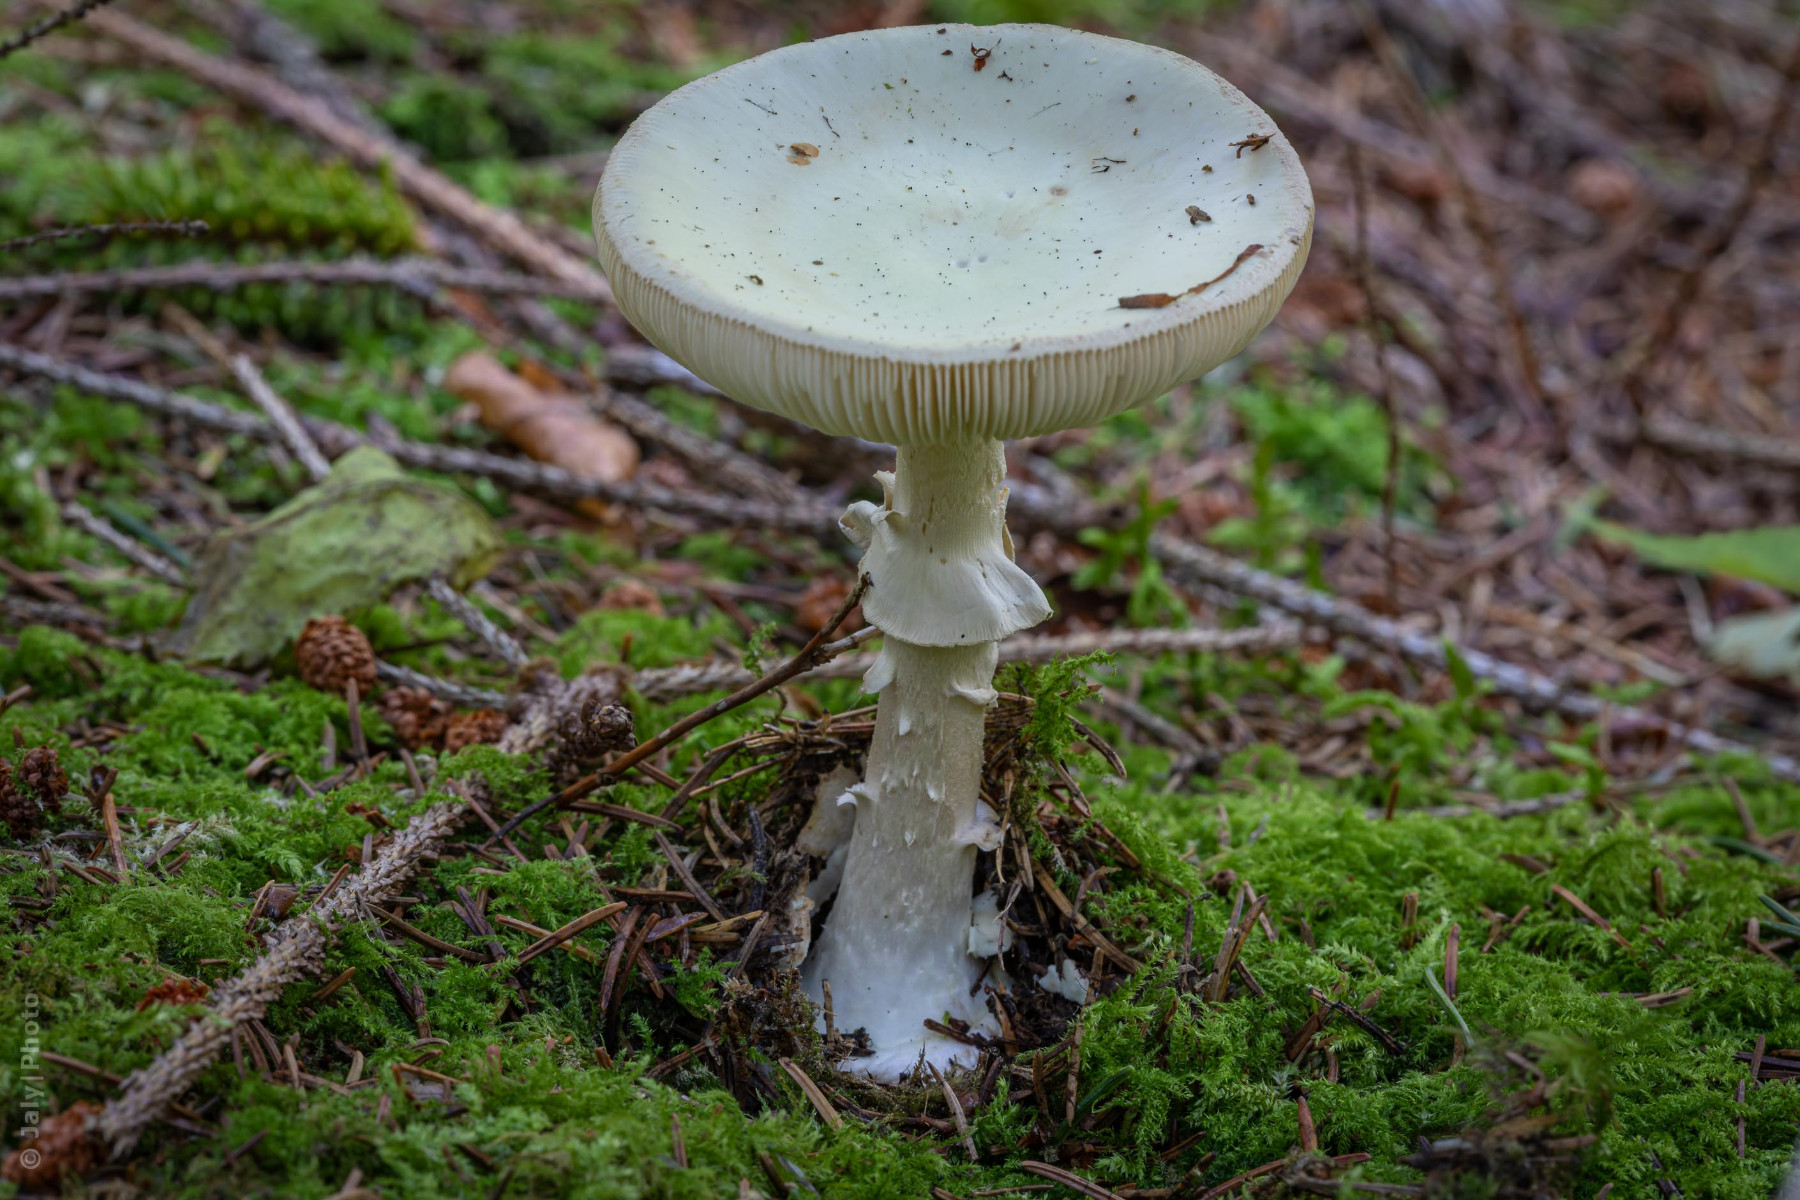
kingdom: Fungi
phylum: Basidiomycota
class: Agaricomycetes
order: Agaricales
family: Amanitaceae
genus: Amanita
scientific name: Amanita citrina
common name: kugleknoldet fluesvamp
